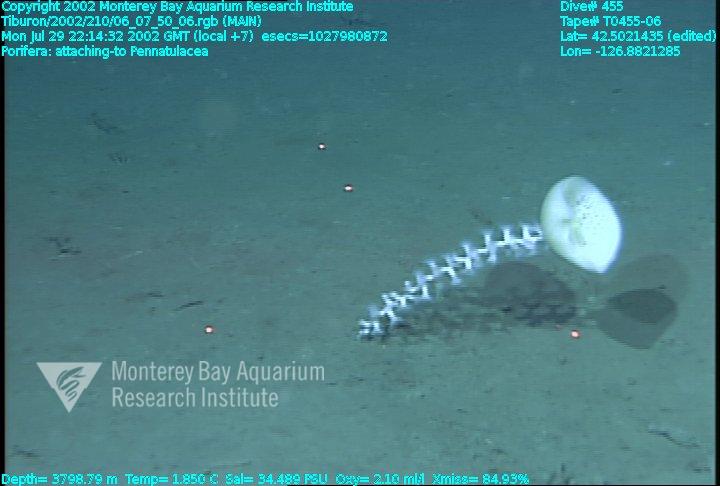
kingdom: Animalia
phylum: Porifera
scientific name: Porifera
